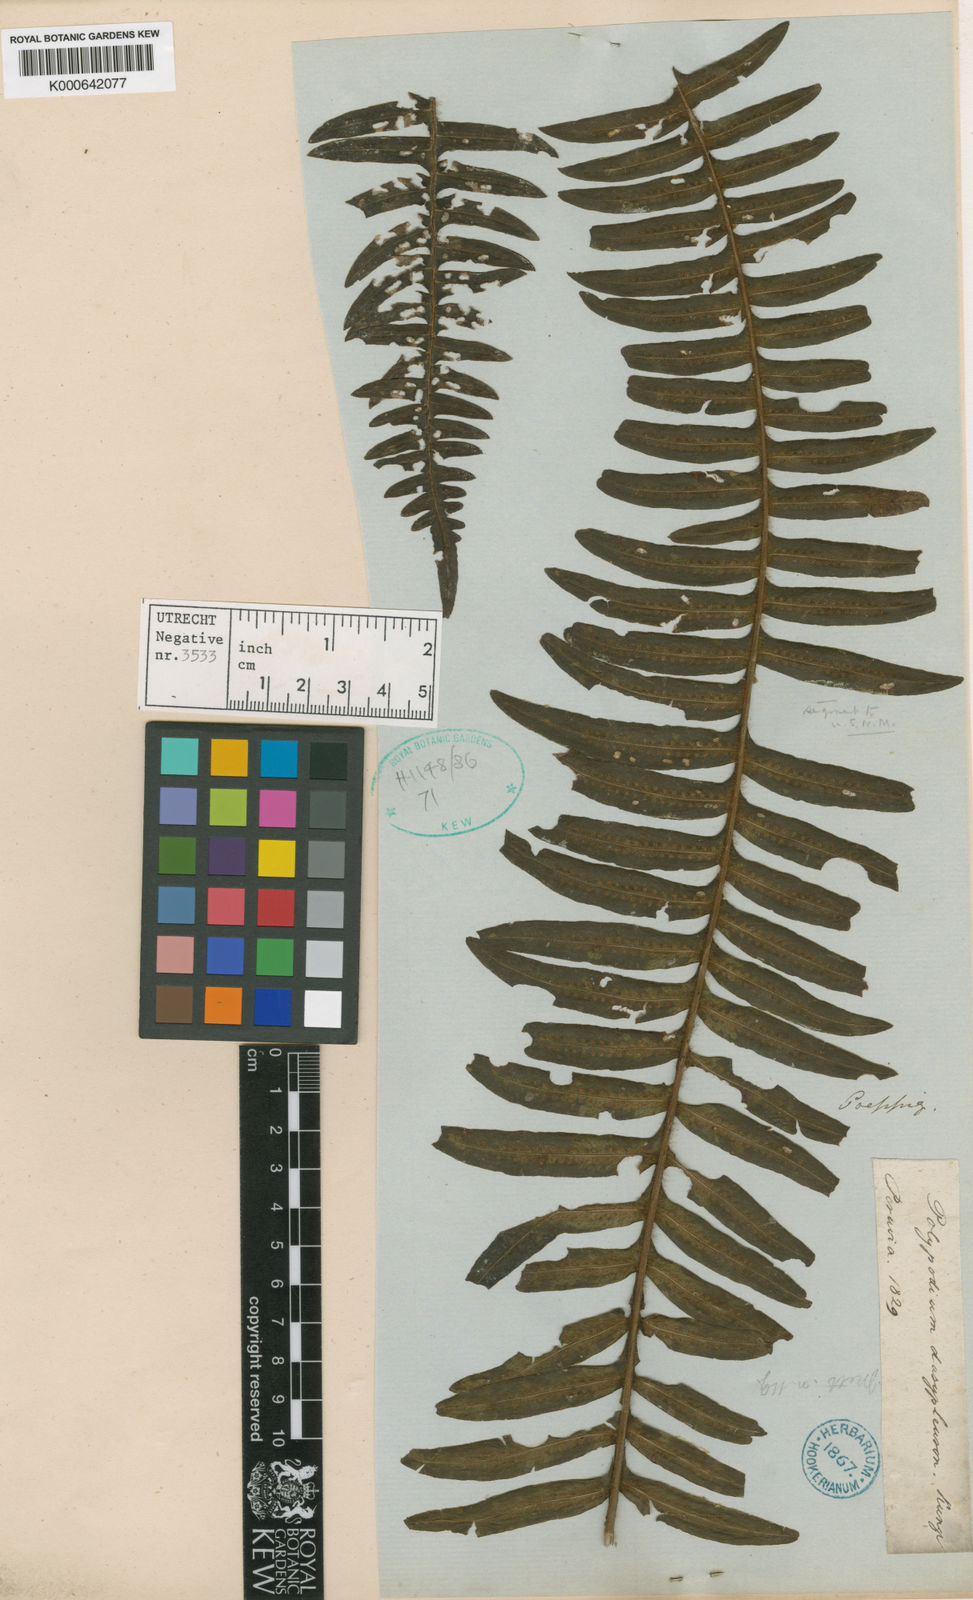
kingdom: Plantae
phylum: Tracheophyta
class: Polypodiopsida
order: Polypodiales
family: Polypodiaceae
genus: Serpocaulon
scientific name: Serpocaulon dasypleuron
